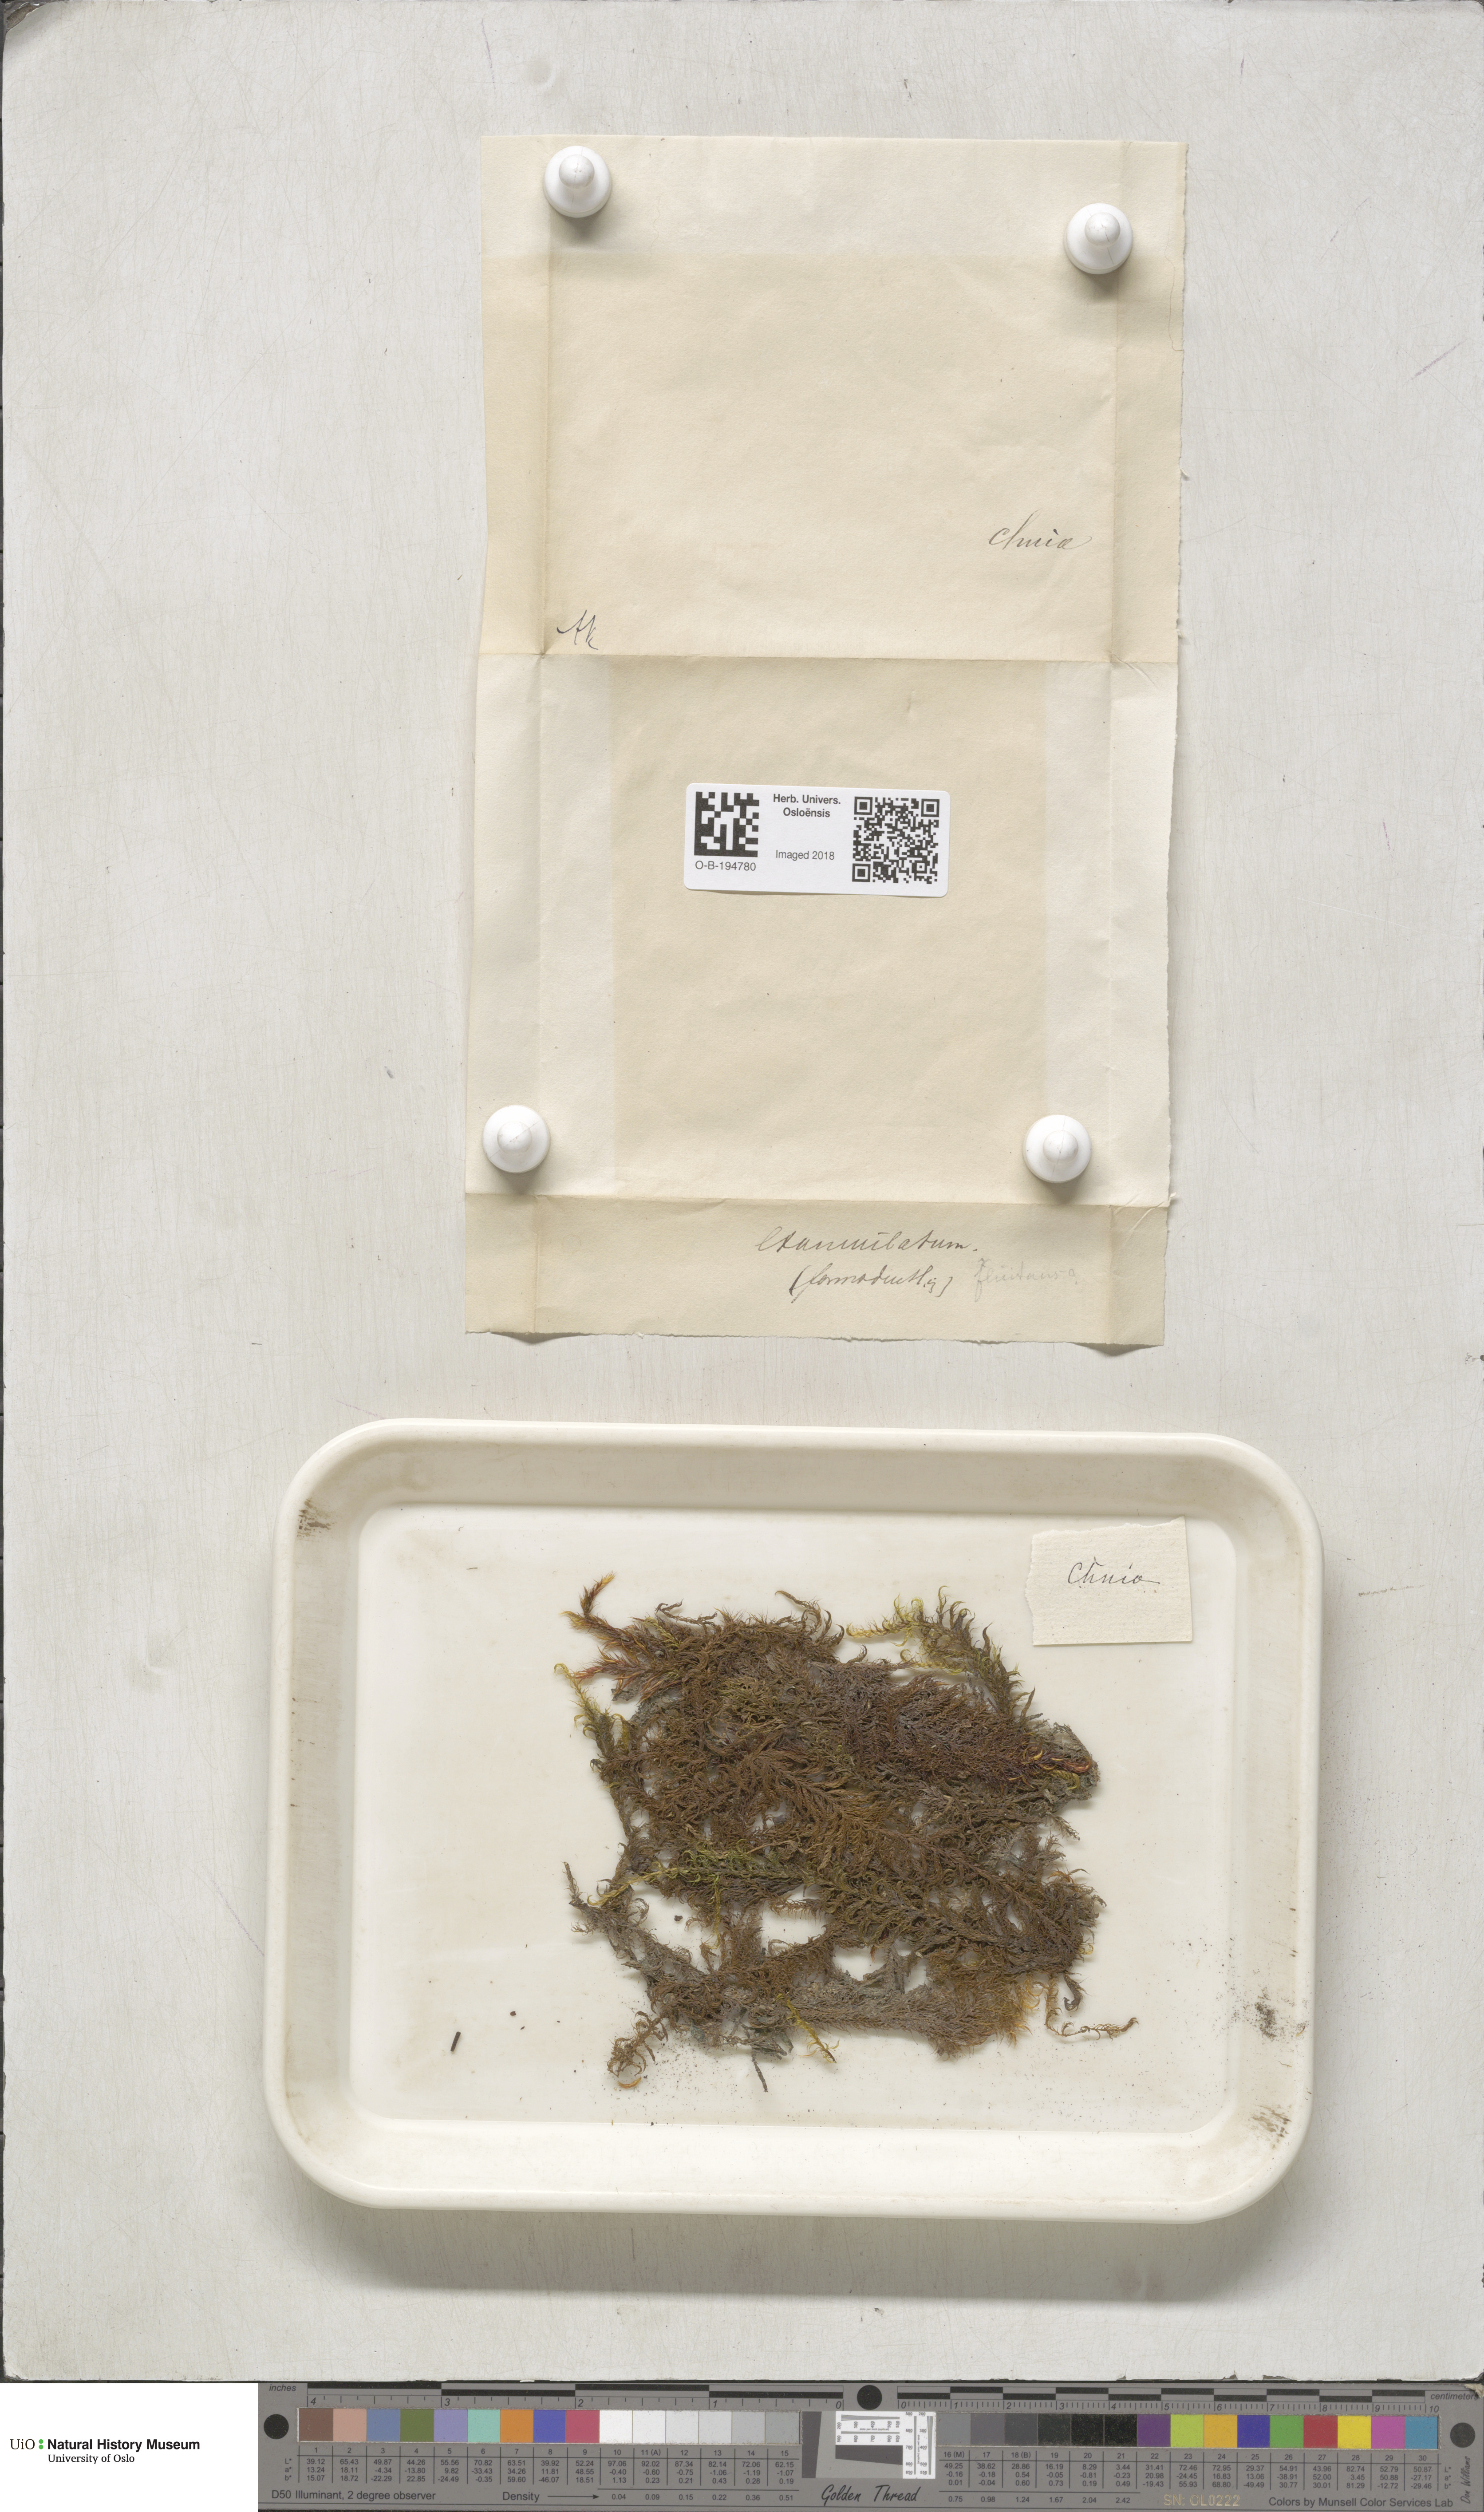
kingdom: Plantae
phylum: Bryophyta
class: Bryopsida
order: Hypnales
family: Calliergonaceae
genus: Sarmentypnum
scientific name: Sarmentypnum exannulatum
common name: Ringless spoon moss
